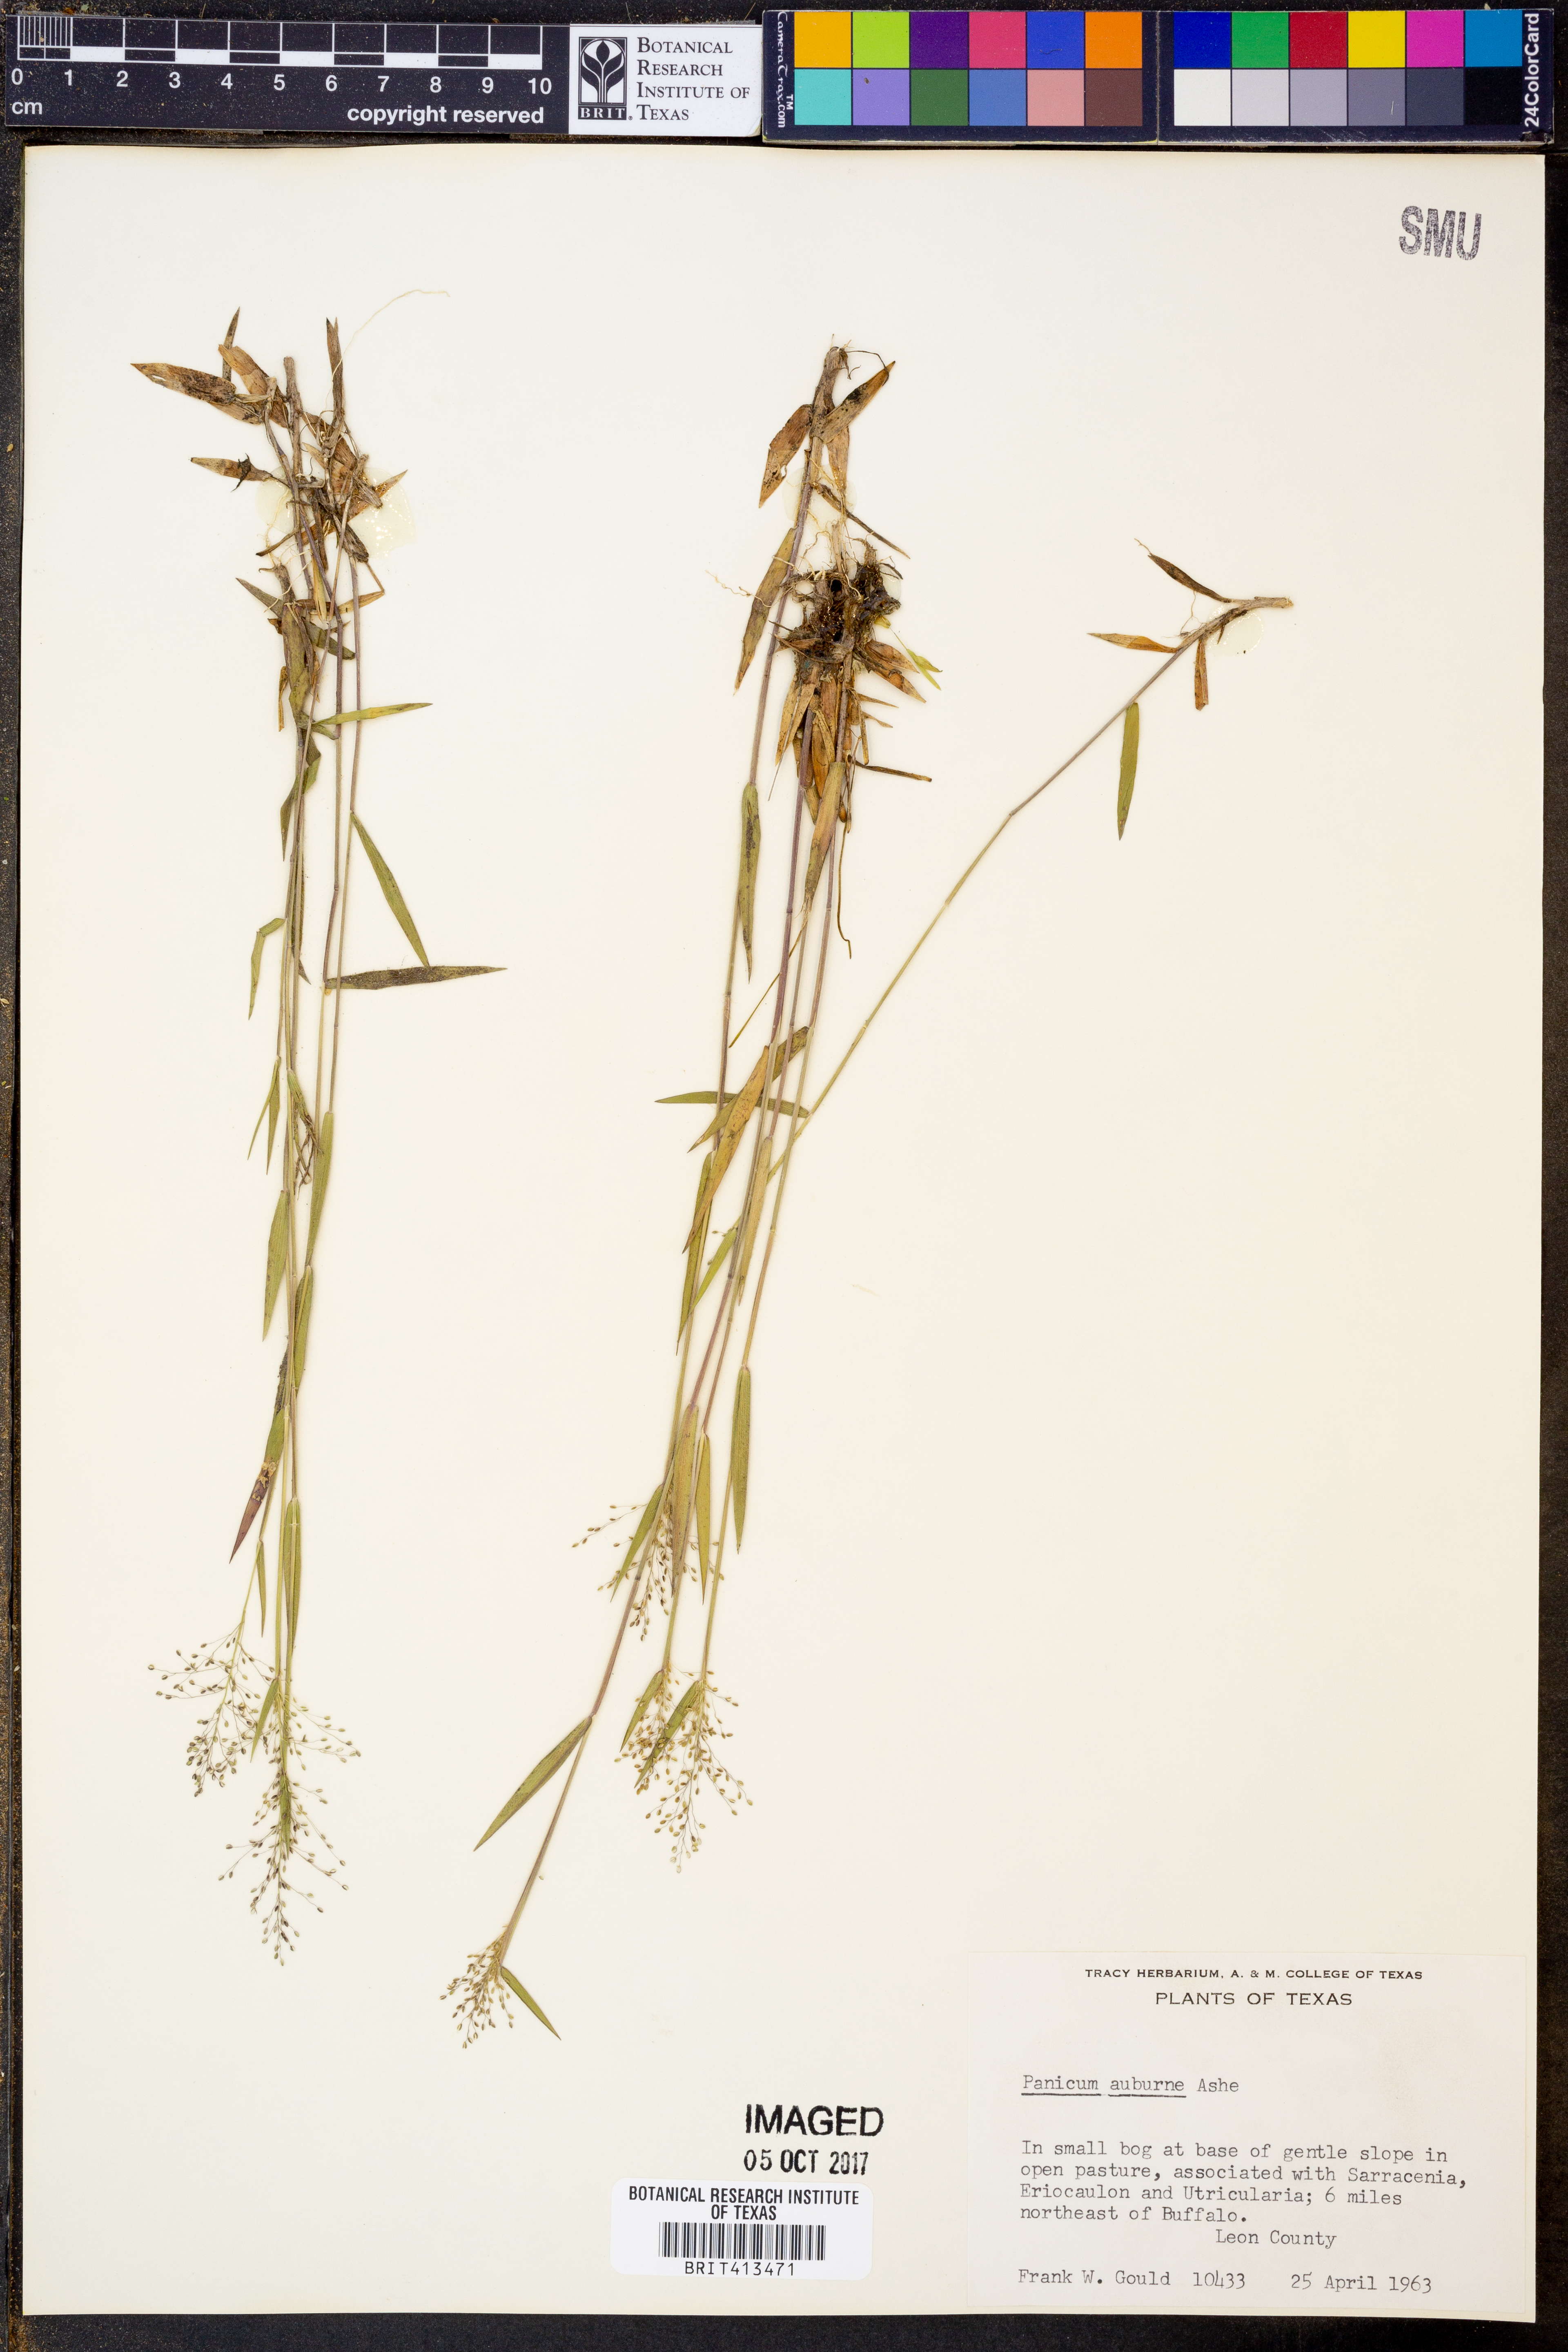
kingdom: Plantae
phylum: Tracheophyta
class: Liliopsida
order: Poales
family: Poaceae
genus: Dichanthelium
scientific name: Dichanthelium acuminatum
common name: Hairy panic grass
